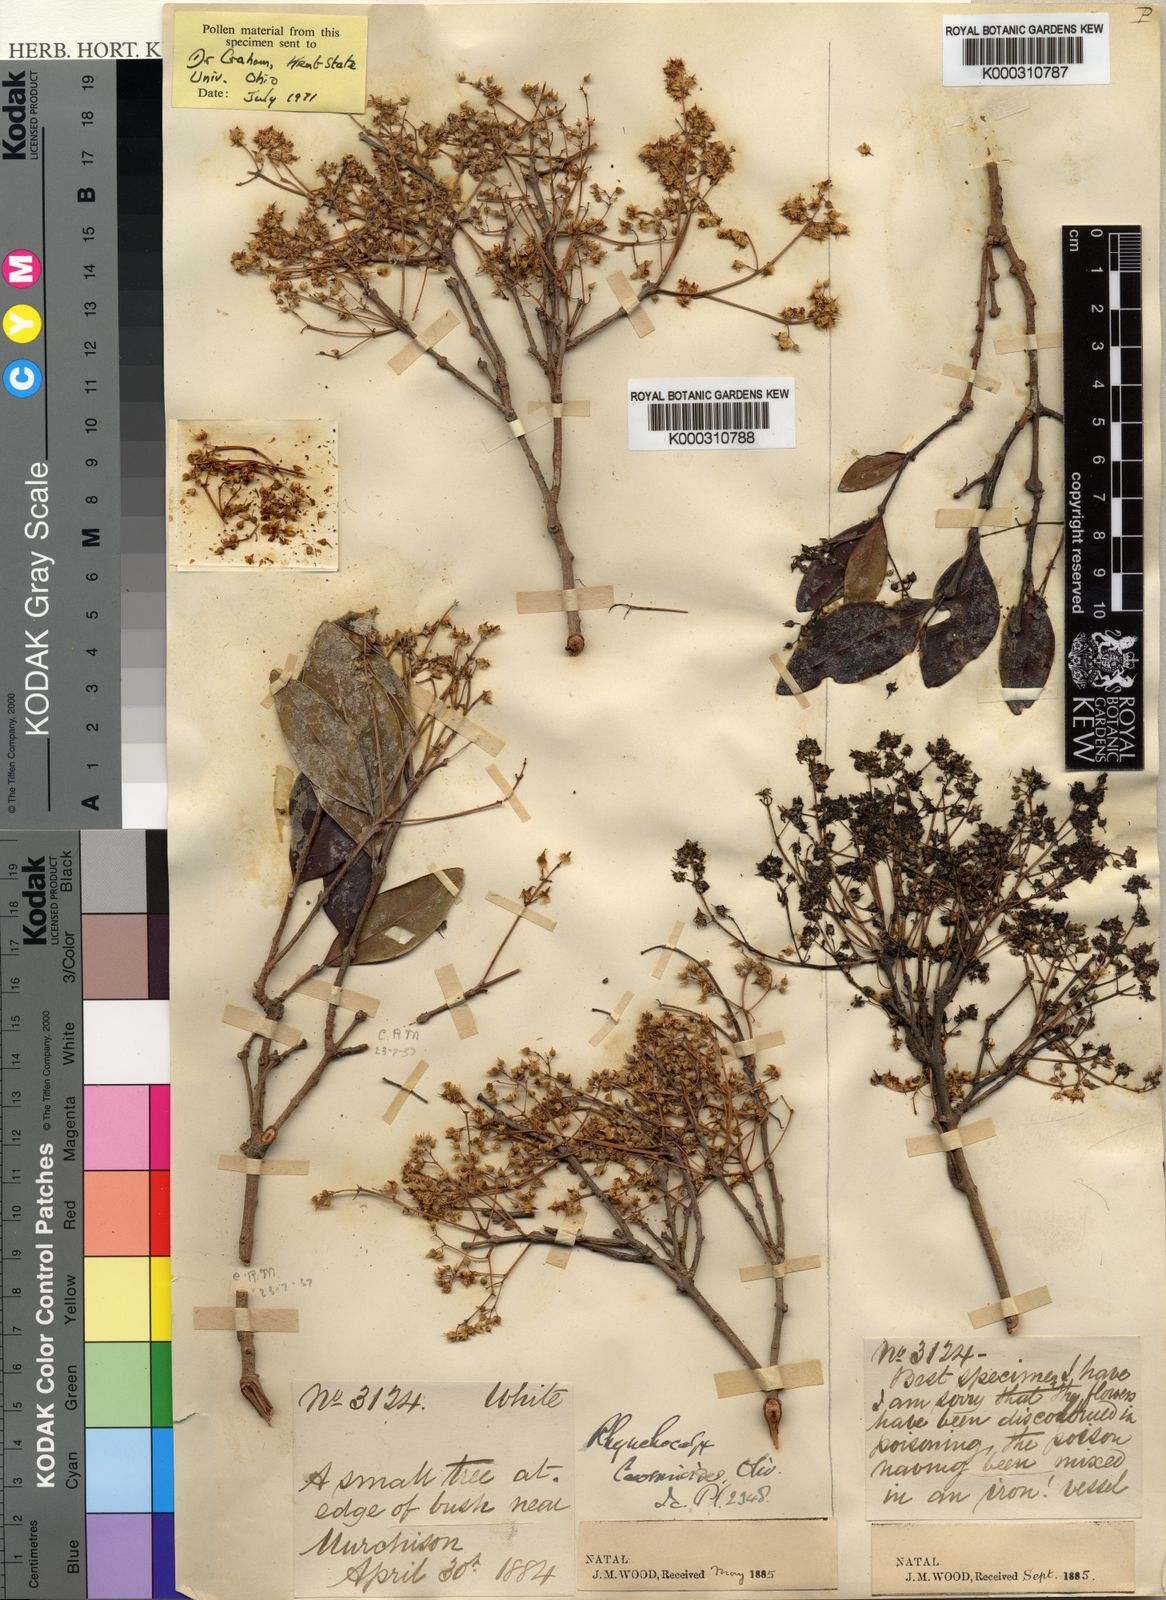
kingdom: Plantae
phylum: Tracheophyta
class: Magnoliopsida
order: Myrtales
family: Penaeaceae
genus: Rhynchocalyx
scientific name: Rhynchocalyx lawsonioides
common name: False-waterberry
